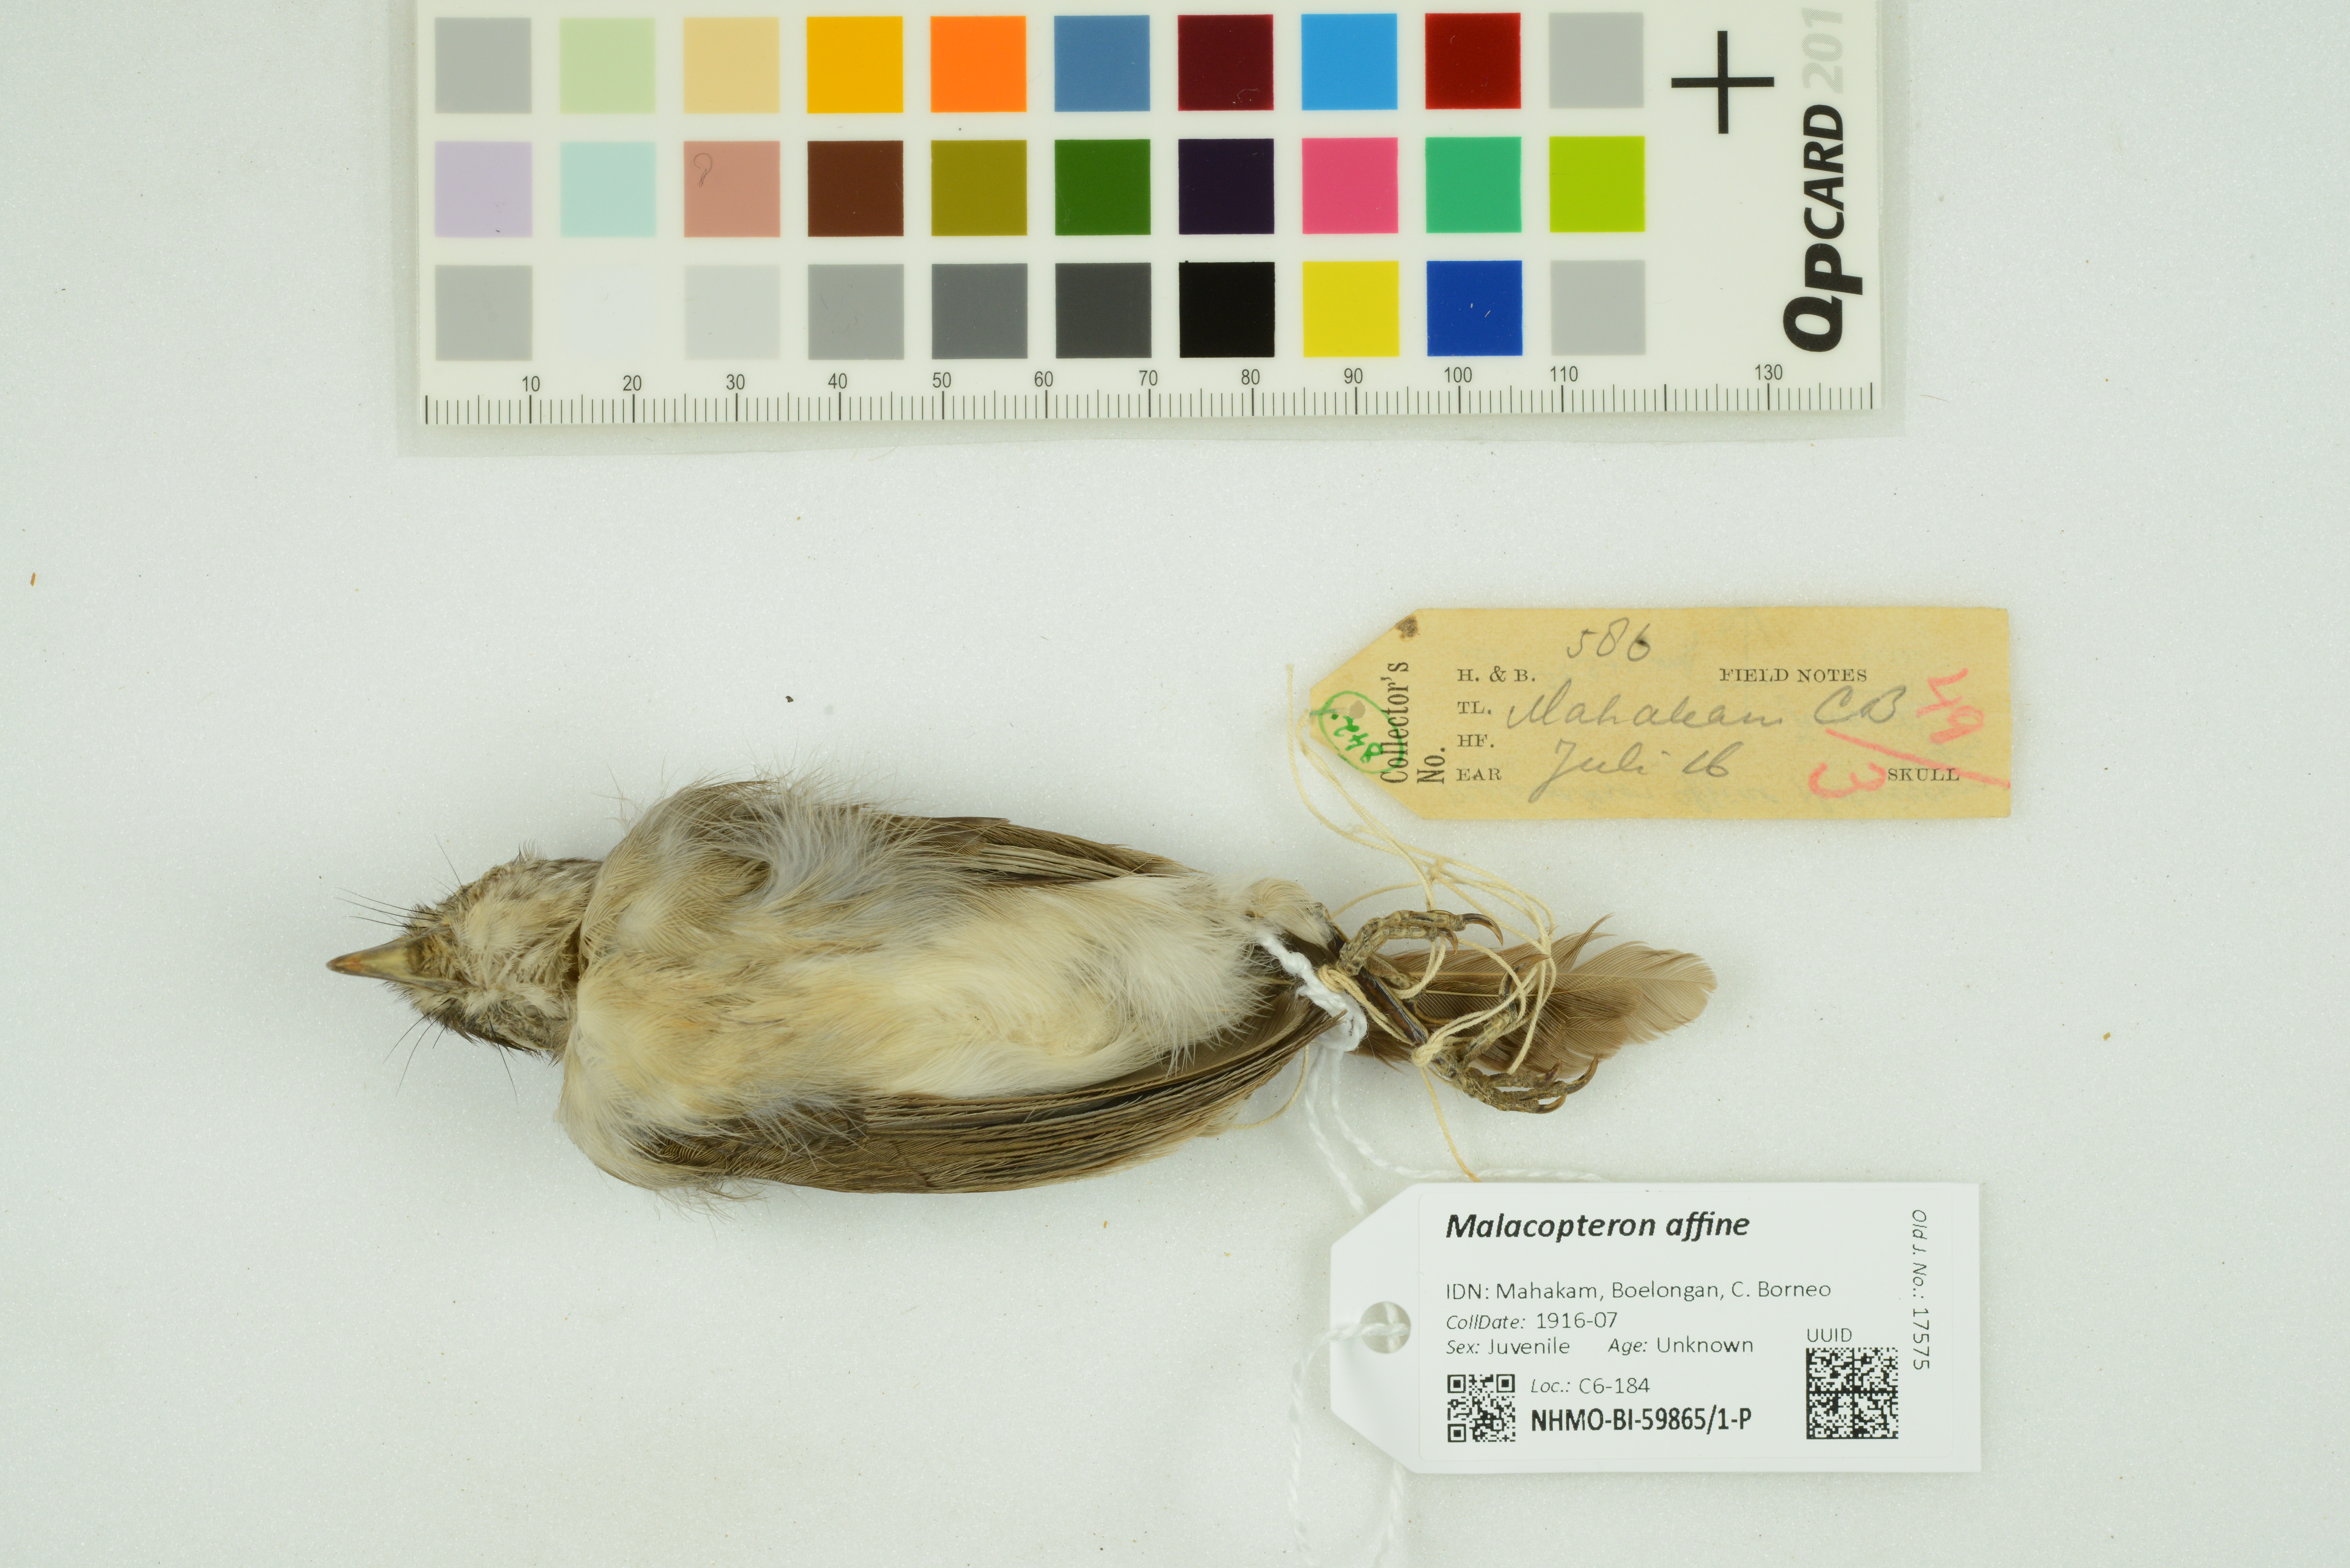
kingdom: Animalia
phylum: Chordata
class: Aves
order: Passeriformes
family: Pellorneidae
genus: Malacopteron
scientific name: Malacopteron affine
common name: Sooty-capped babbler
